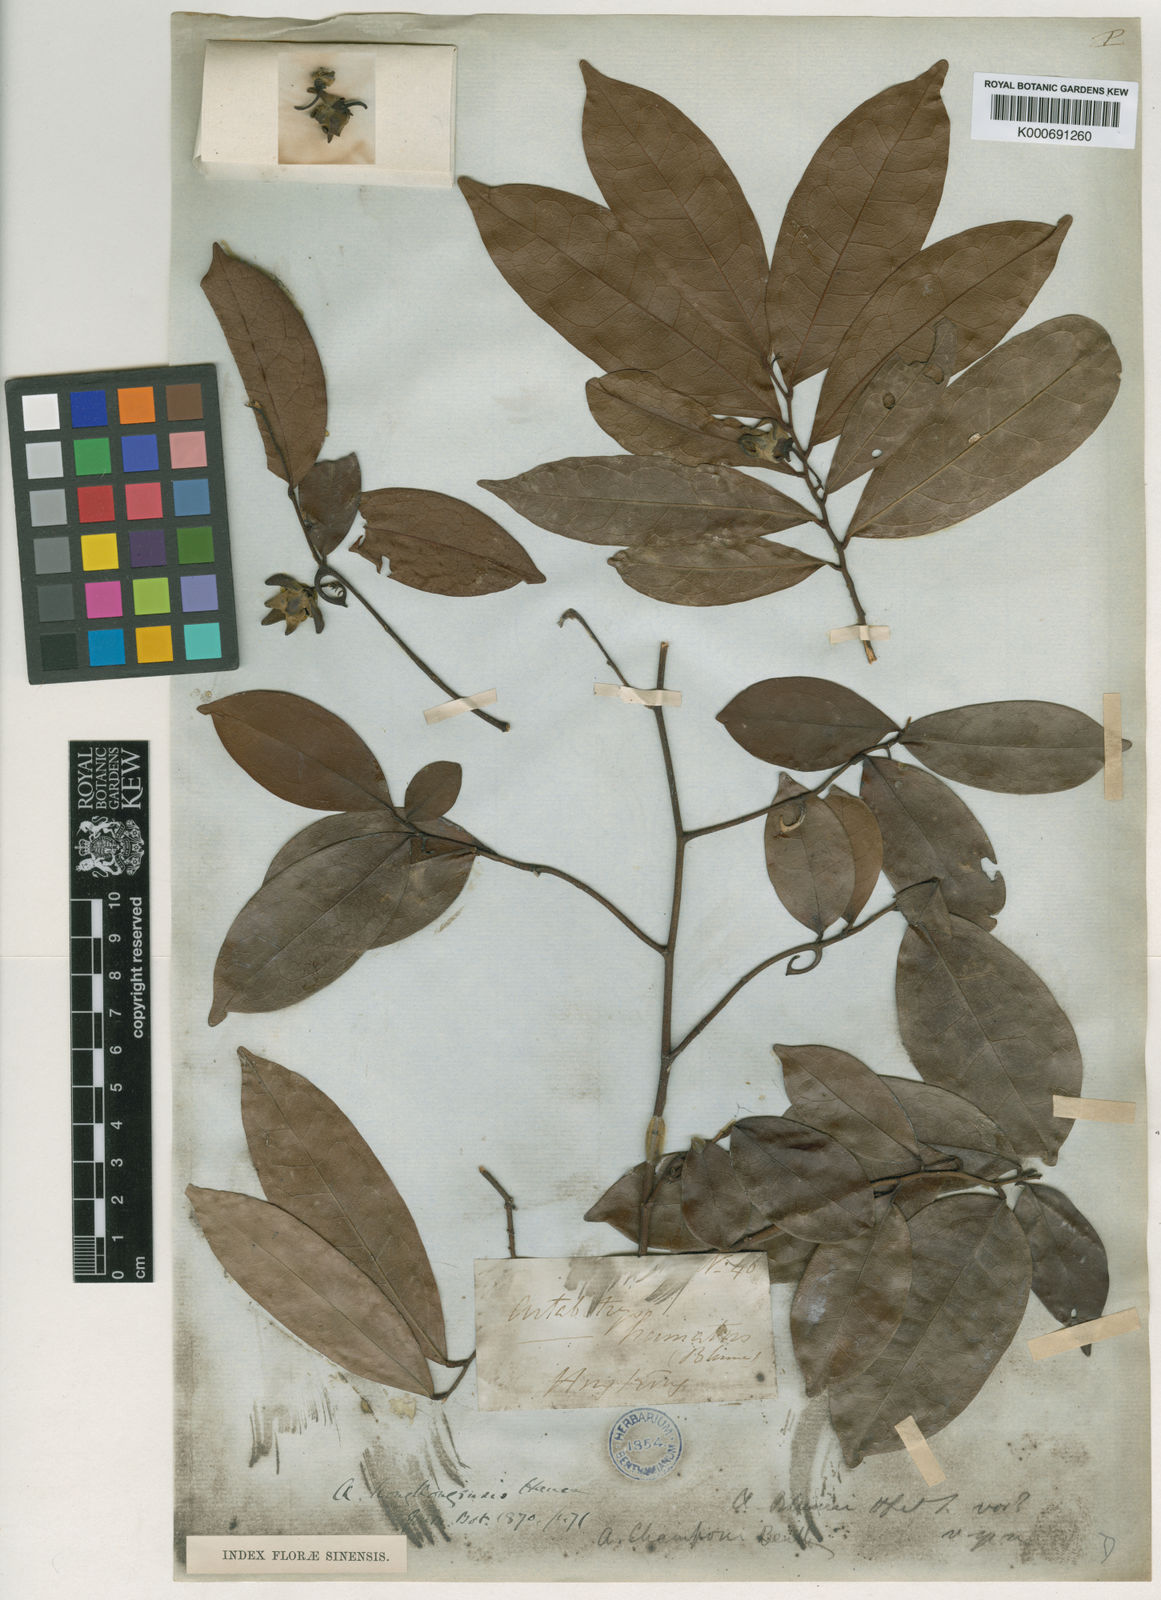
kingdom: Plantae
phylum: Tracheophyta
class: Magnoliopsida
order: Magnoliales
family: Annonaceae
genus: Artabotrys
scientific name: Artabotrys
